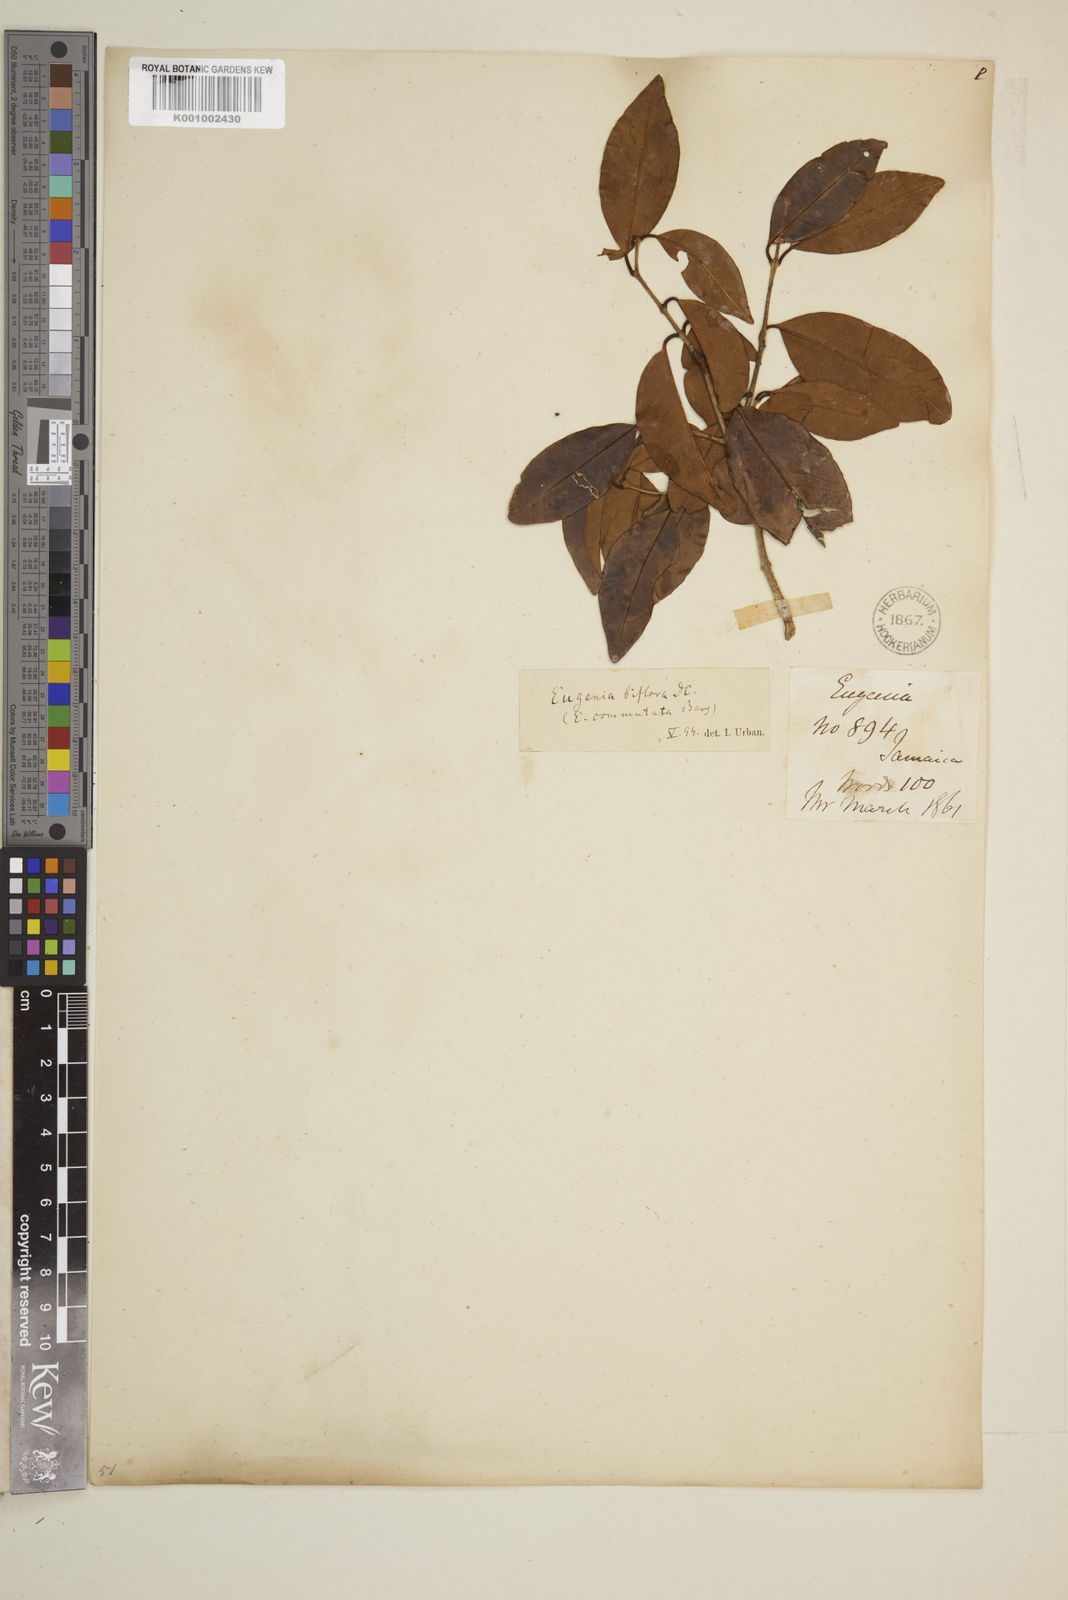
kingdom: Plantae
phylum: Tracheophyta
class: Magnoliopsida
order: Myrtales
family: Myrtaceae
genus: Eugenia
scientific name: Eugenia biflora
